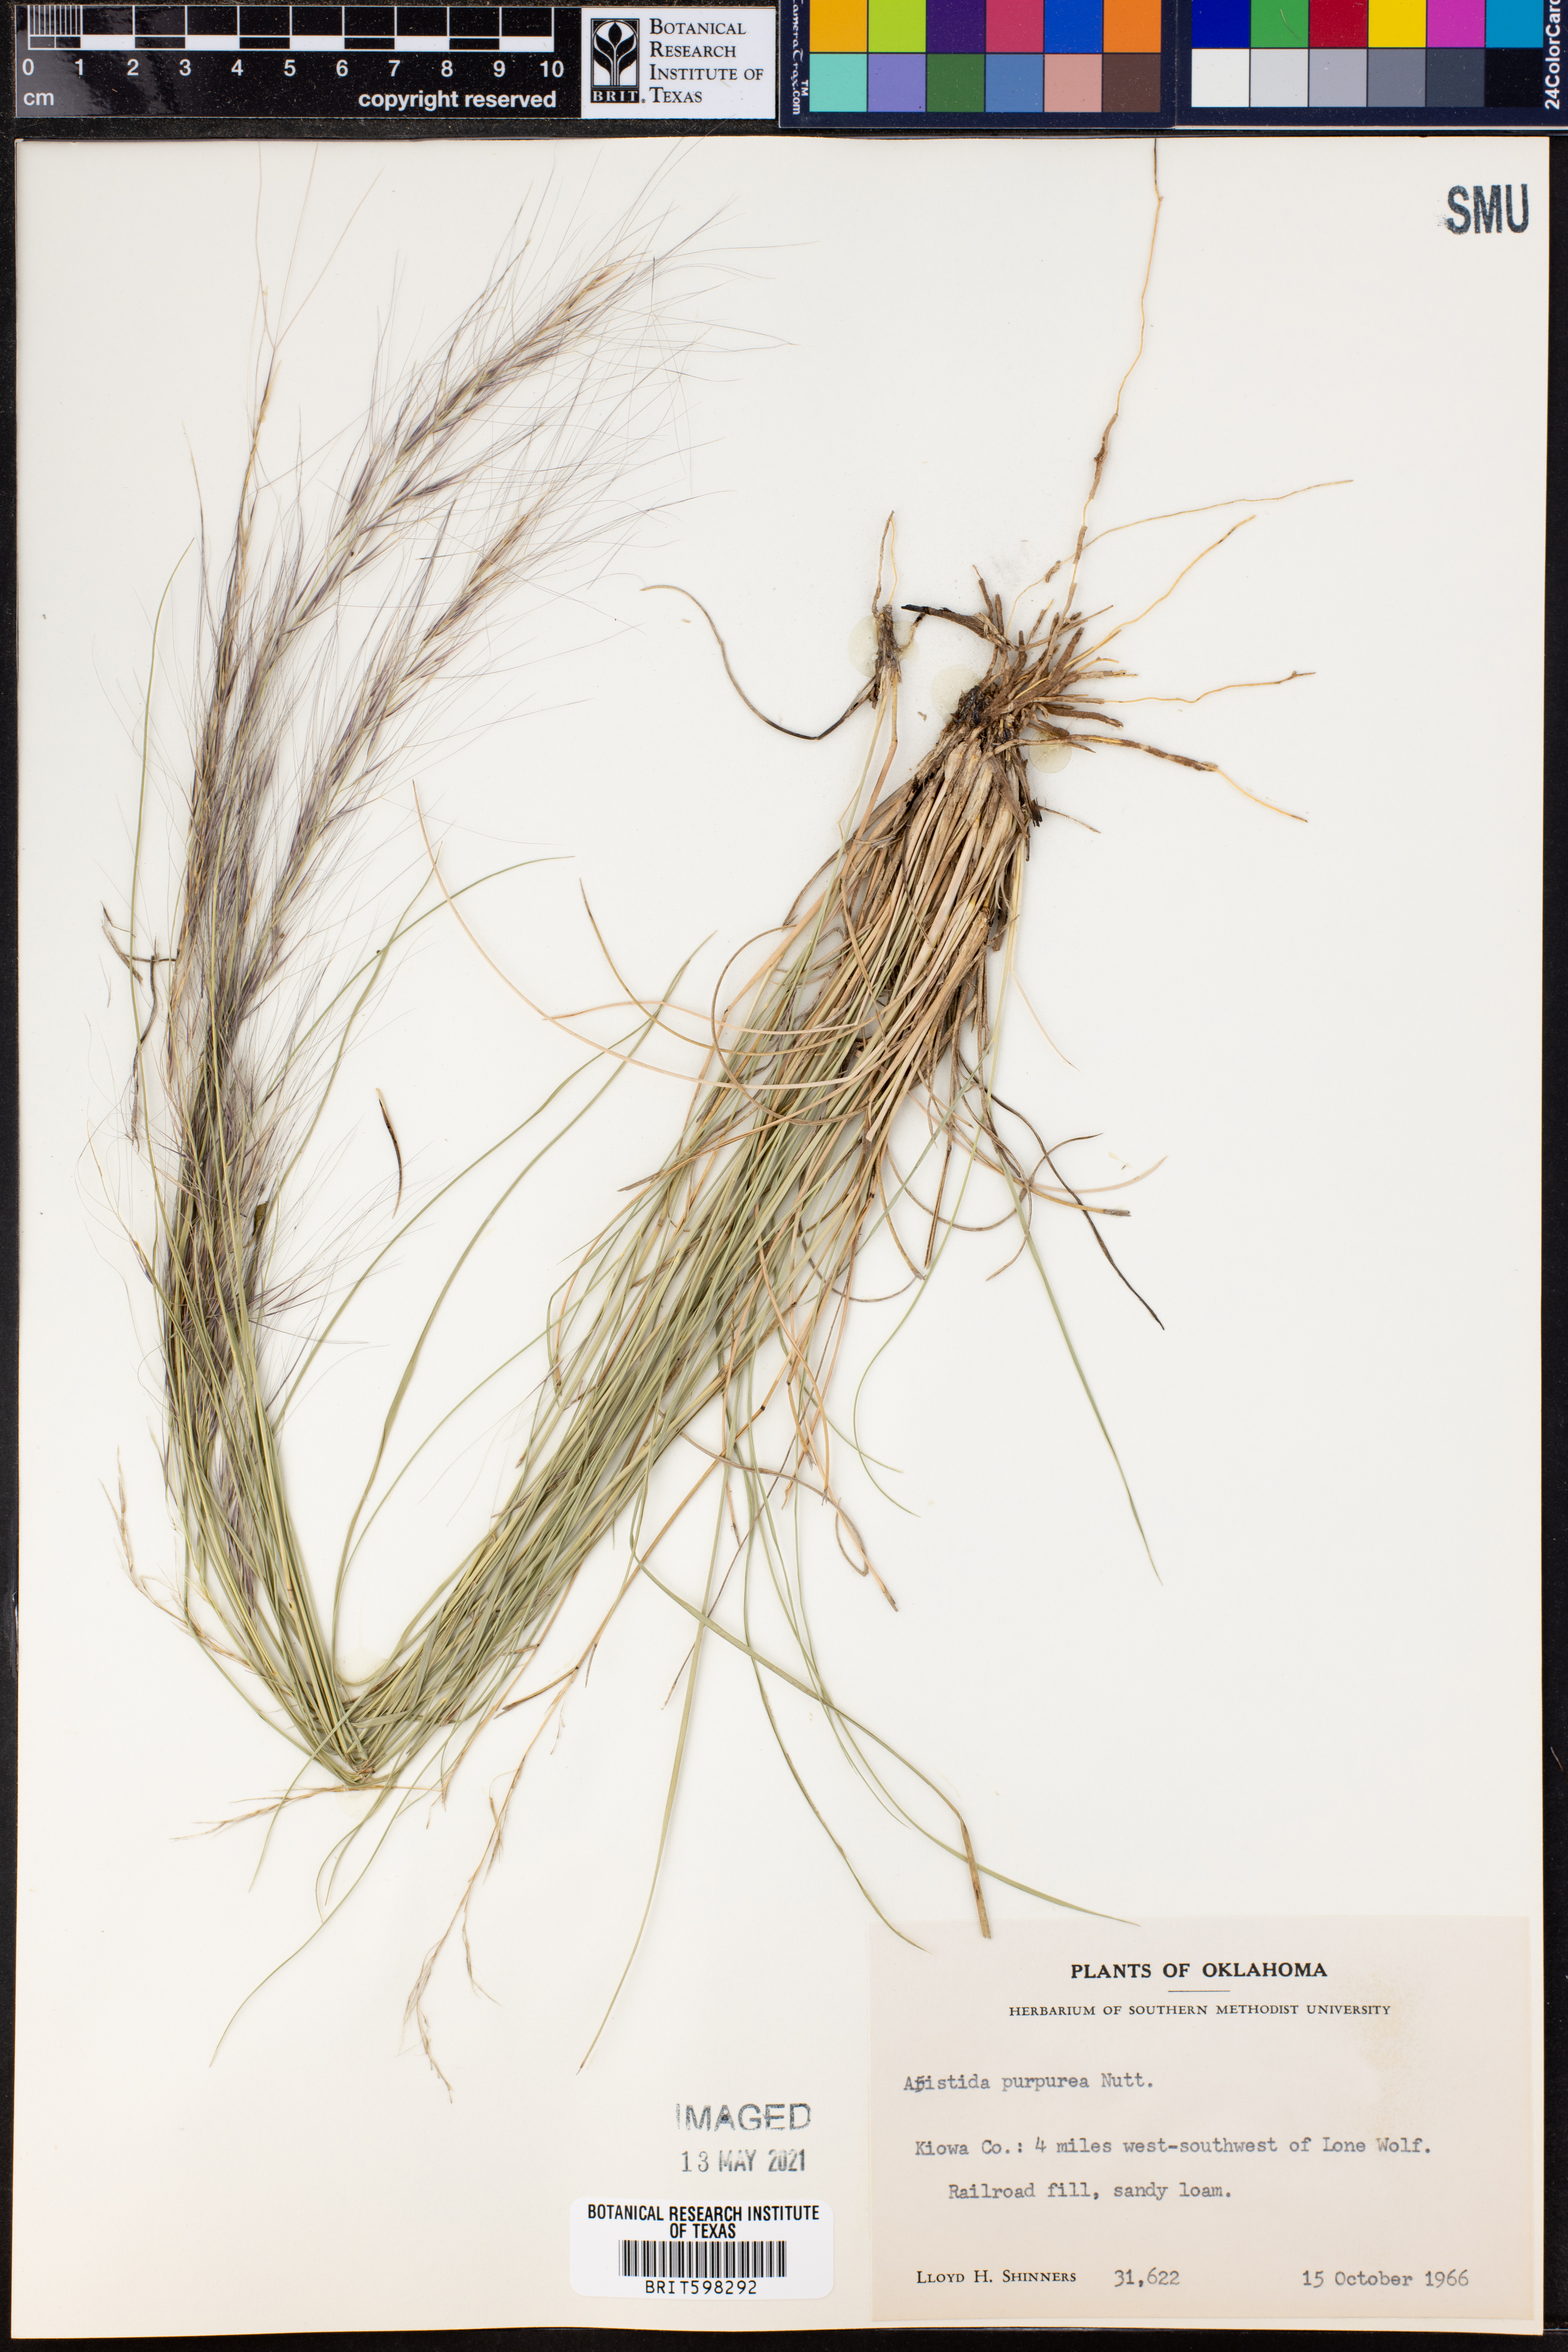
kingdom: Plantae
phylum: Tracheophyta
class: Liliopsida
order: Poales
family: Poaceae
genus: Aristida
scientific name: Aristida purpurea
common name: Purple threeawn
